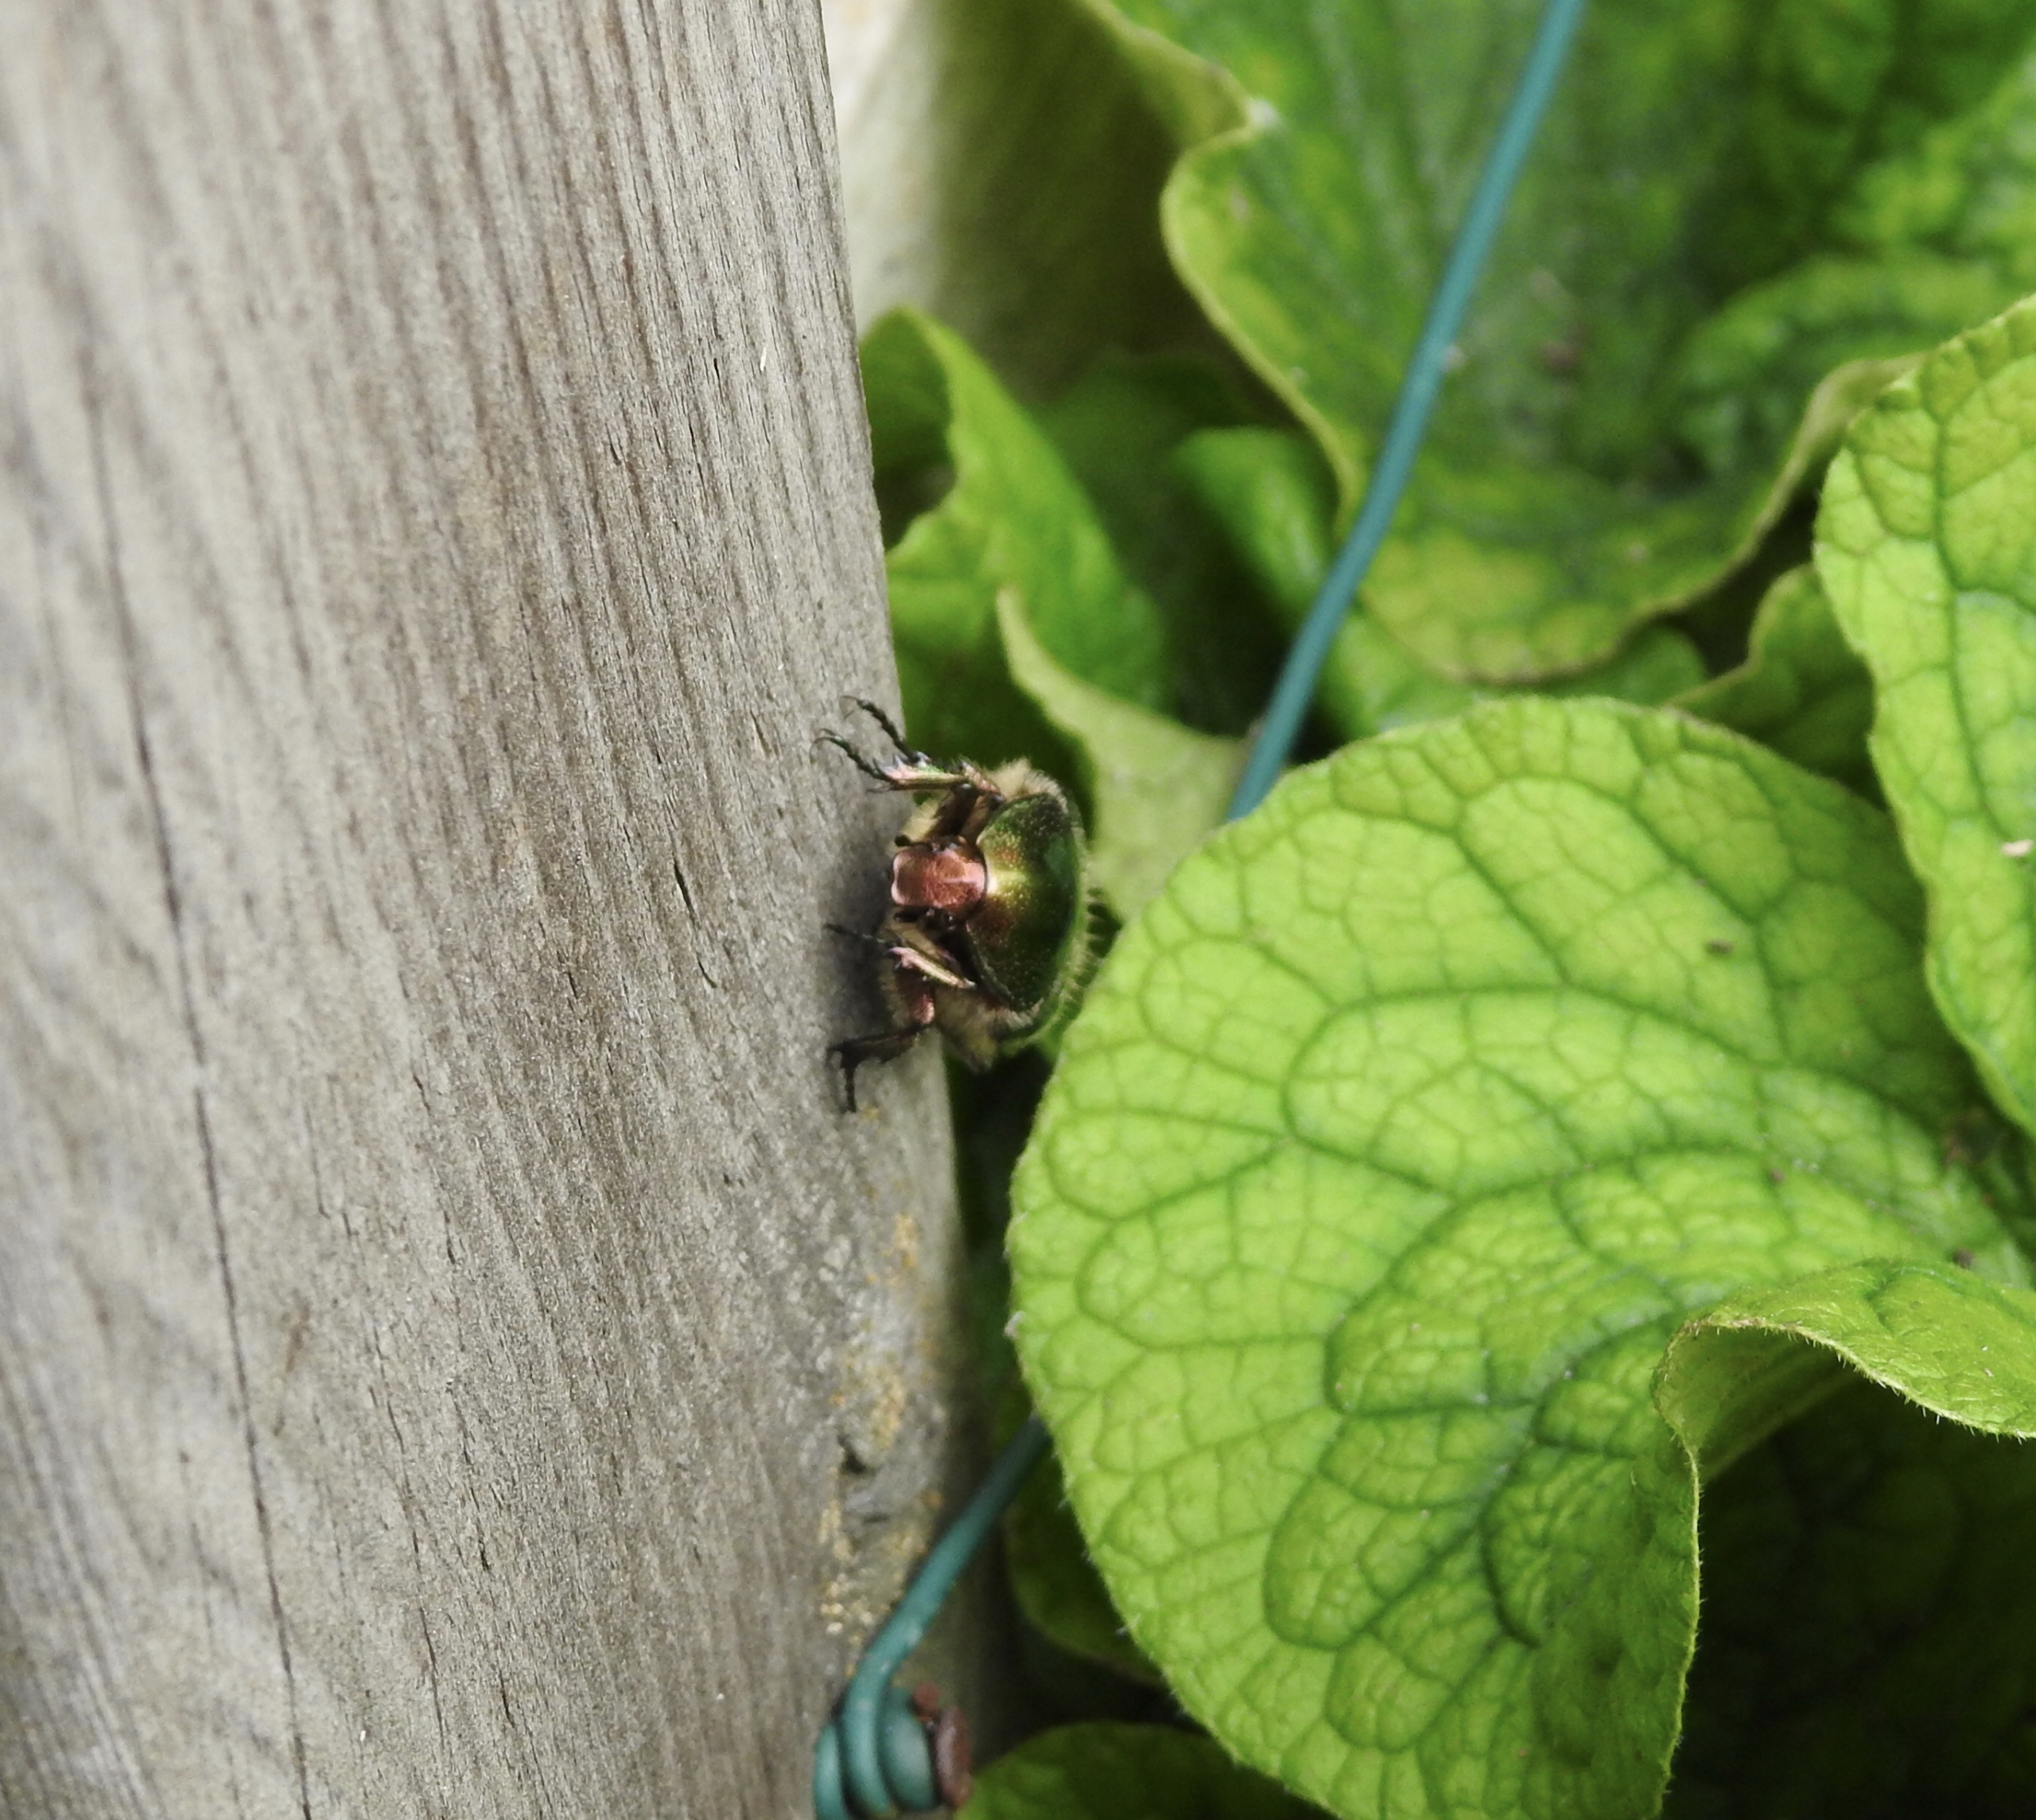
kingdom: Animalia
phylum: Arthropoda
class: Insecta
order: Coleoptera
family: Scarabaeidae
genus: Cetonia
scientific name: Cetonia aurata
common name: Grøn guldbasse
